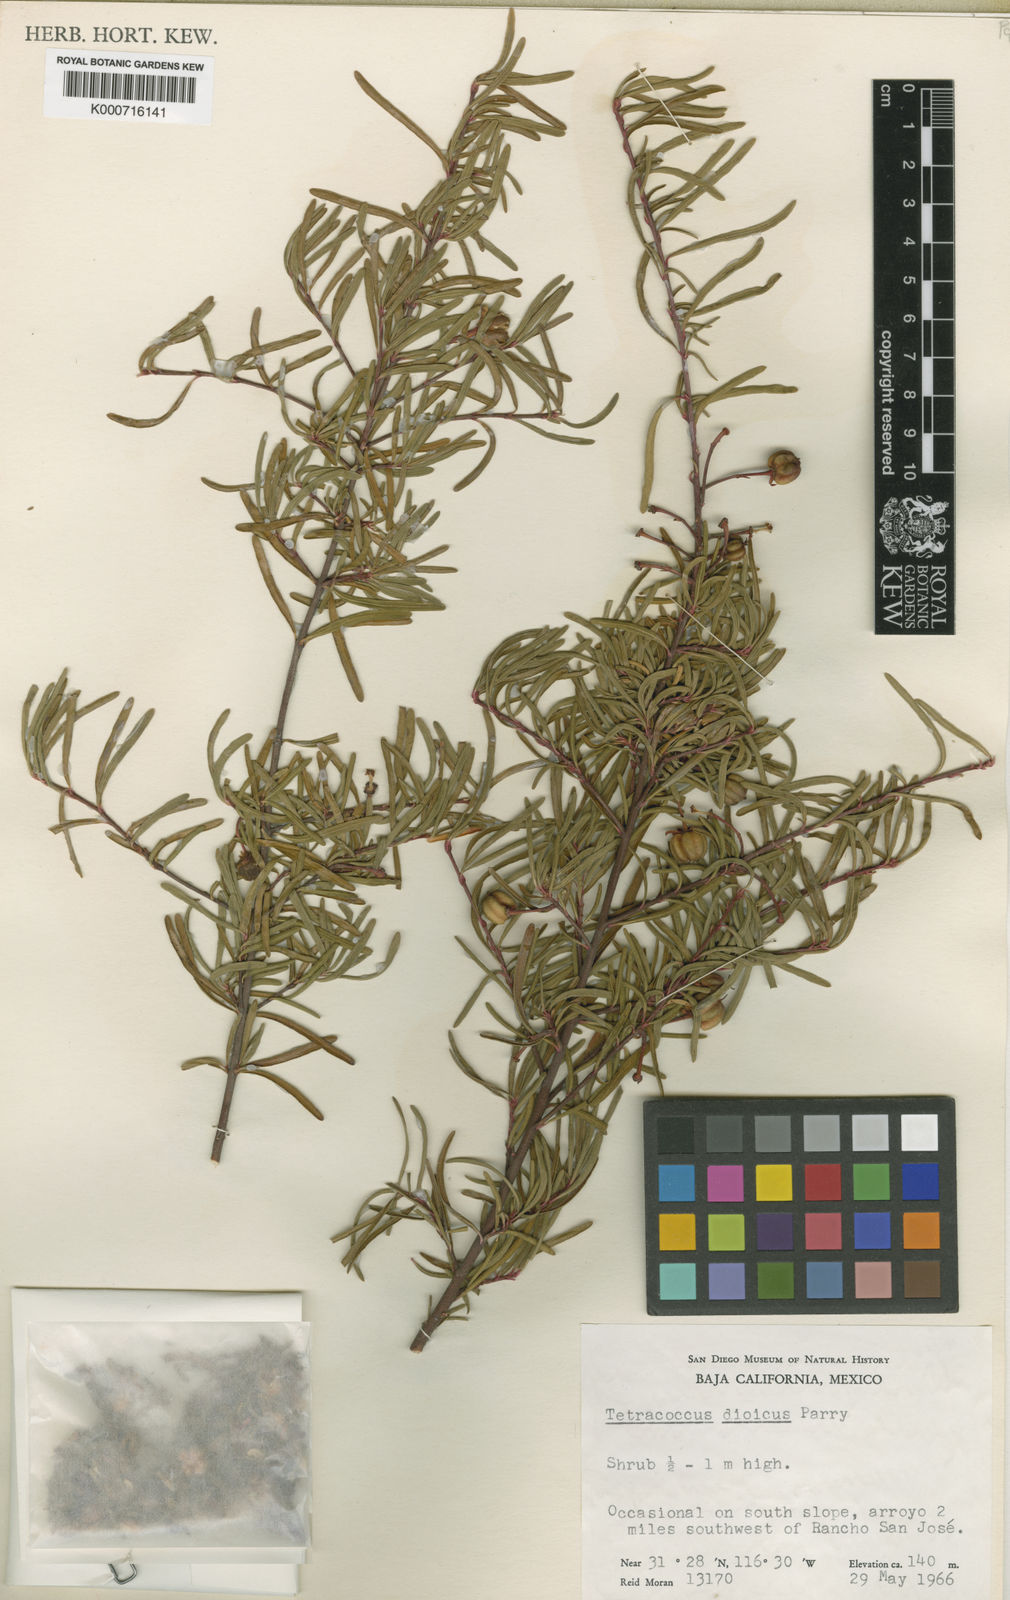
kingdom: Plantae
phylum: Tracheophyta
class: Magnoliopsida
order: Malpighiales
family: Picrodendraceae
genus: Tetracoccus
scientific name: Tetracoccus dioicus
